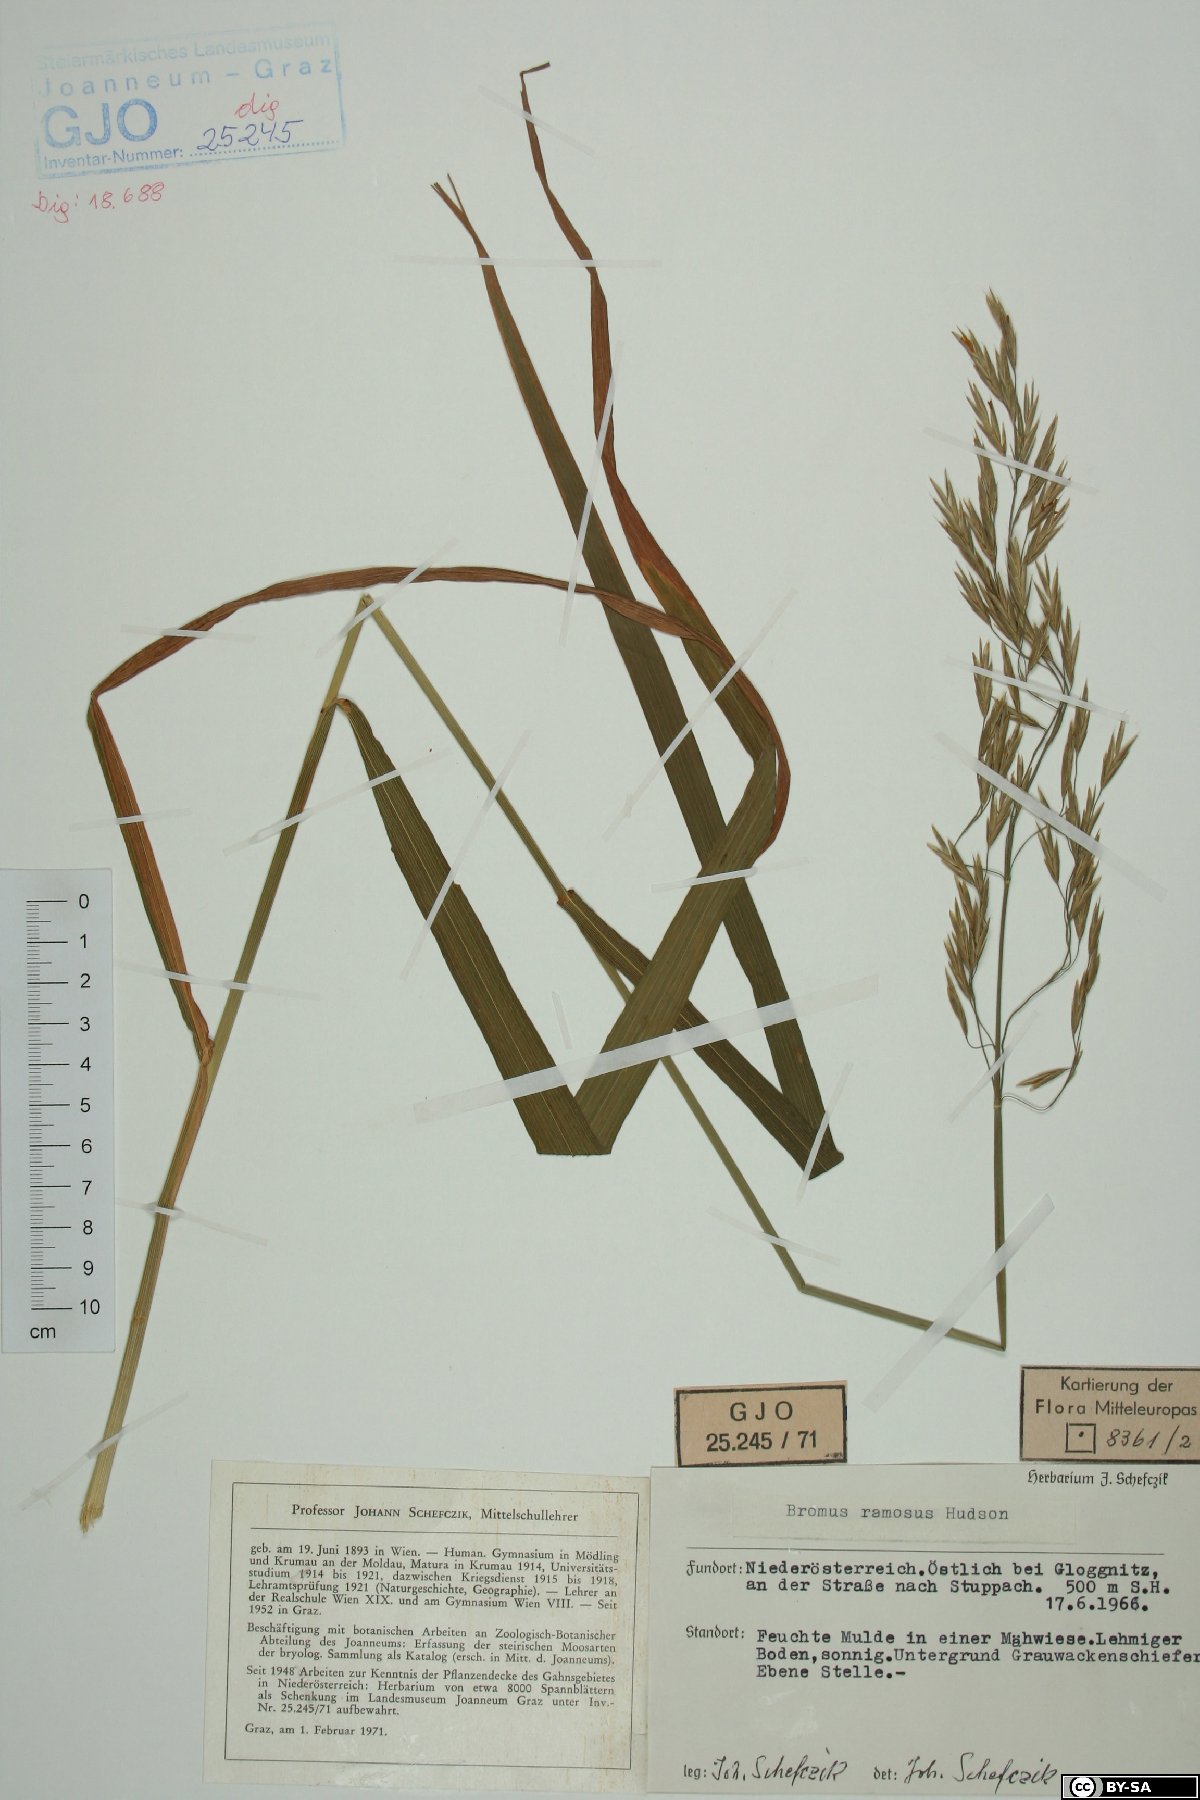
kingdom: Plantae
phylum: Tracheophyta
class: Liliopsida
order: Poales
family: Poaceae
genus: Bromus
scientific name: Bromus ramosus
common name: Hairy brome
